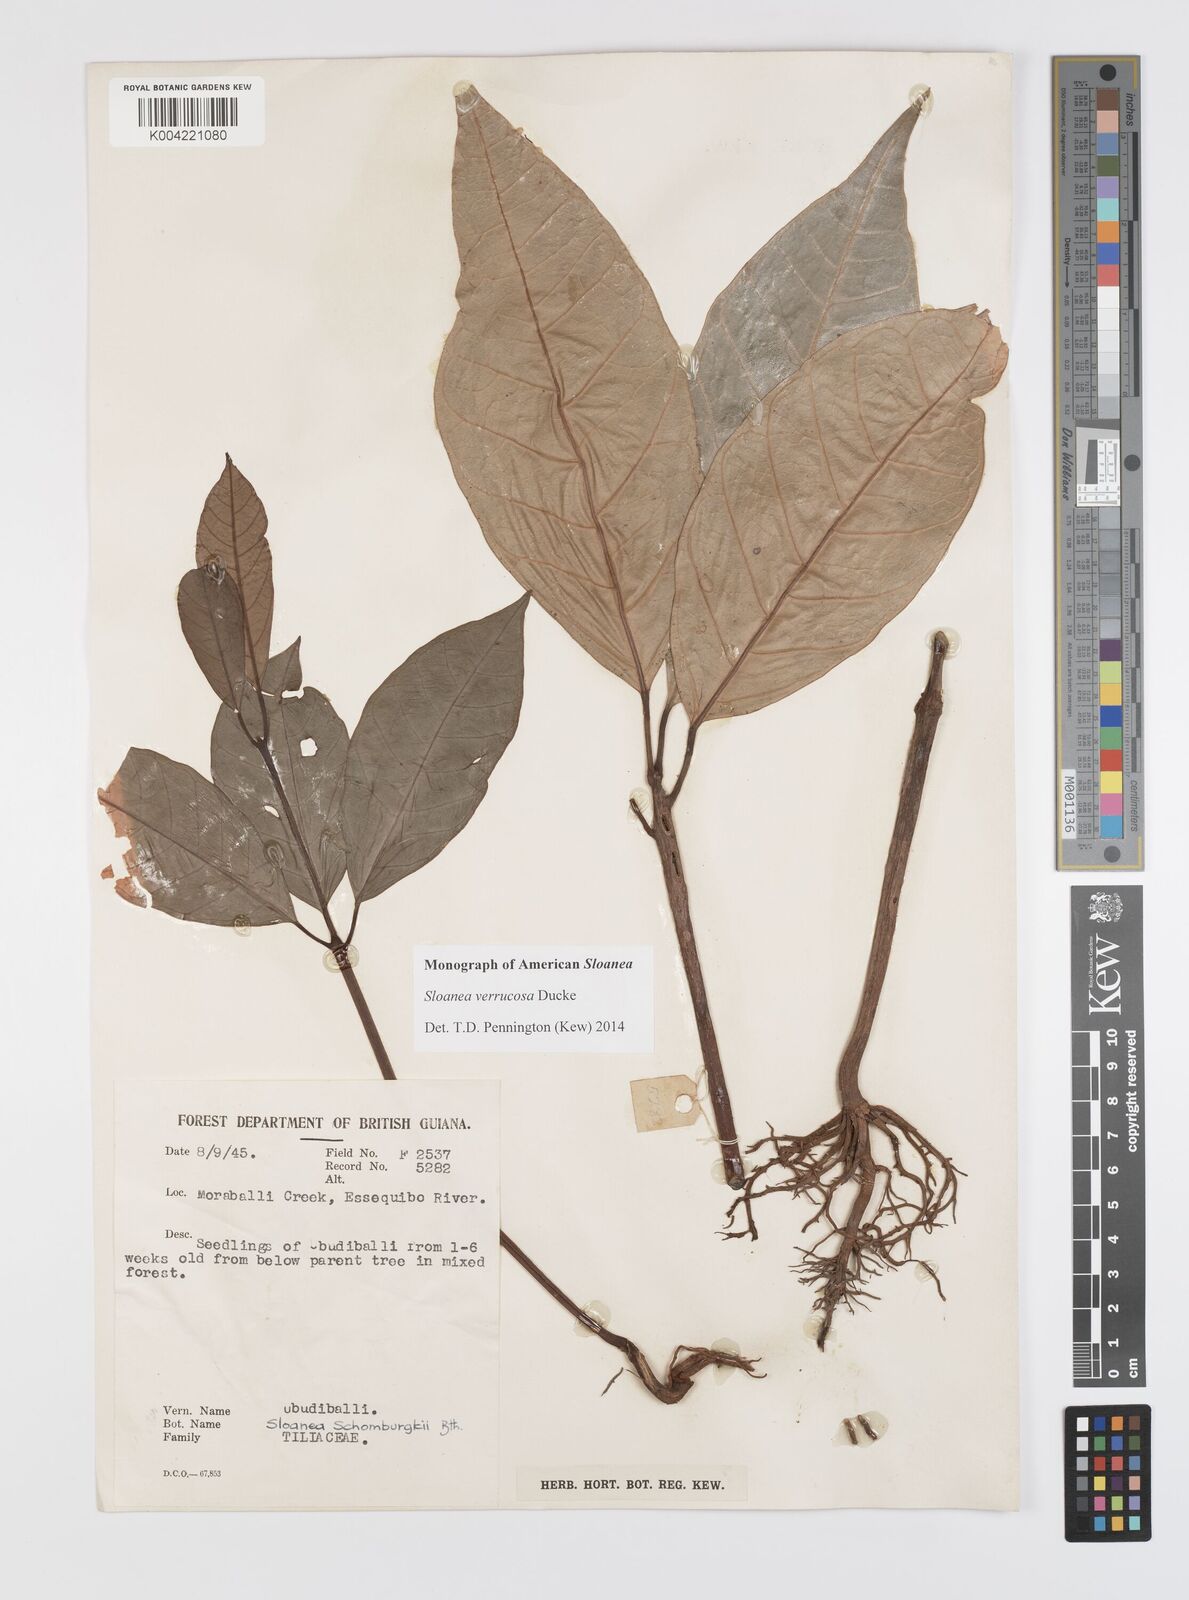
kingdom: Plantae
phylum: Tracheophyta
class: Magnoliopsida
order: Oxalidales
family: Elaeocarpaceae
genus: Sloanea
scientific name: Sloanea schomburgkii
